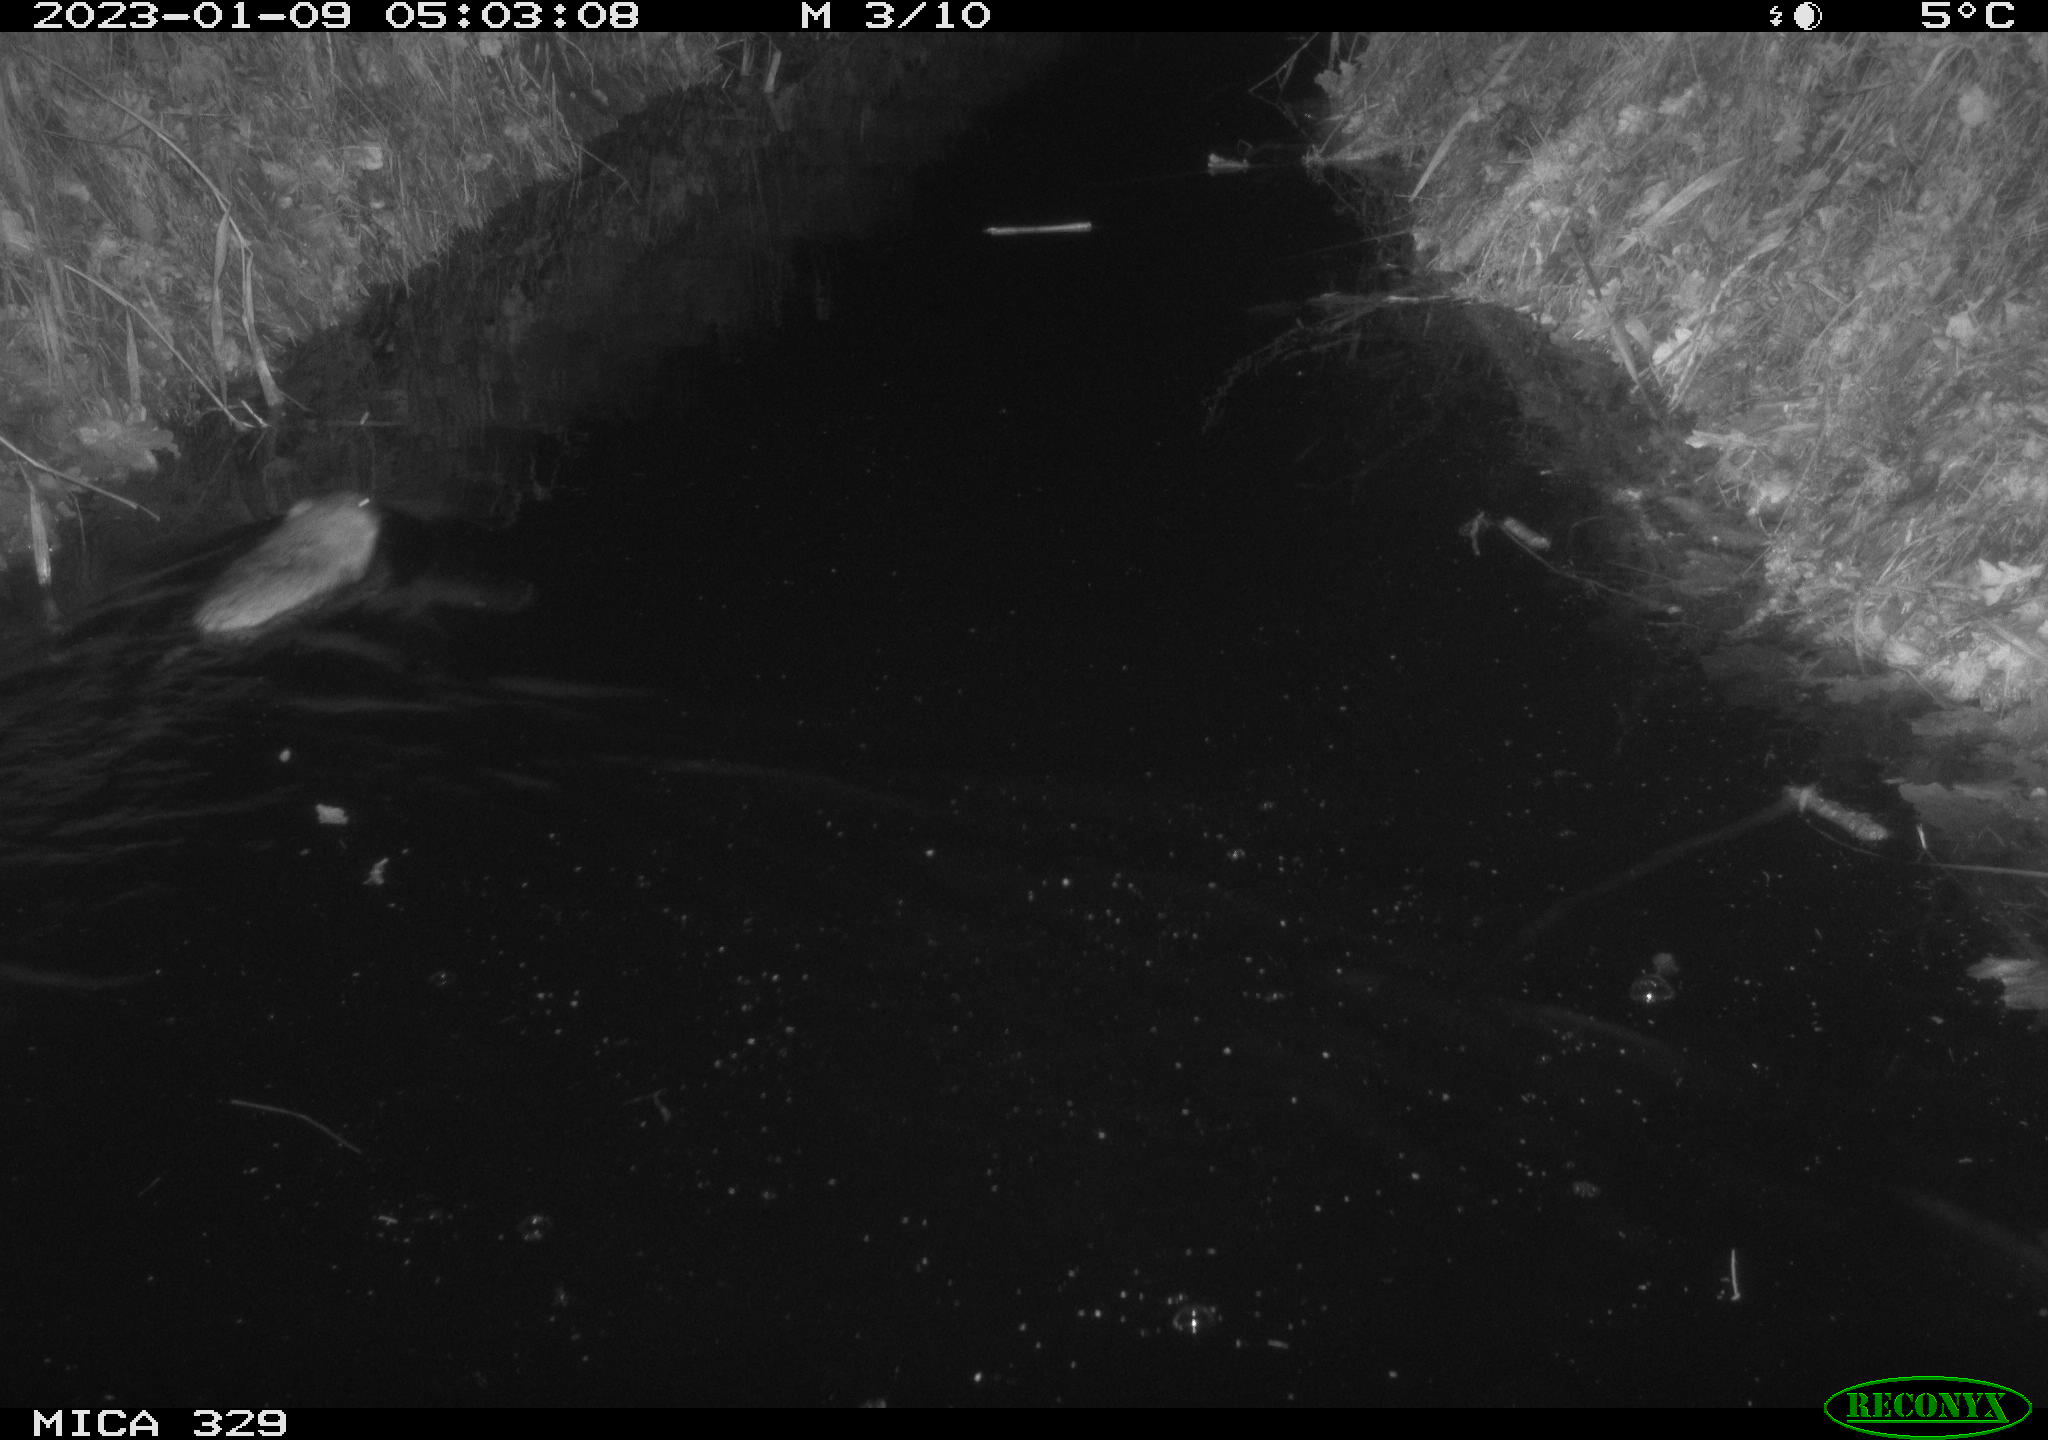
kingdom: Animalia
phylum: Chordata
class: Mammalia
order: Rodentia
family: Cricetidae
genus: Ondatra
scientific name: Ondatra zibethicus
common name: Muskrat
